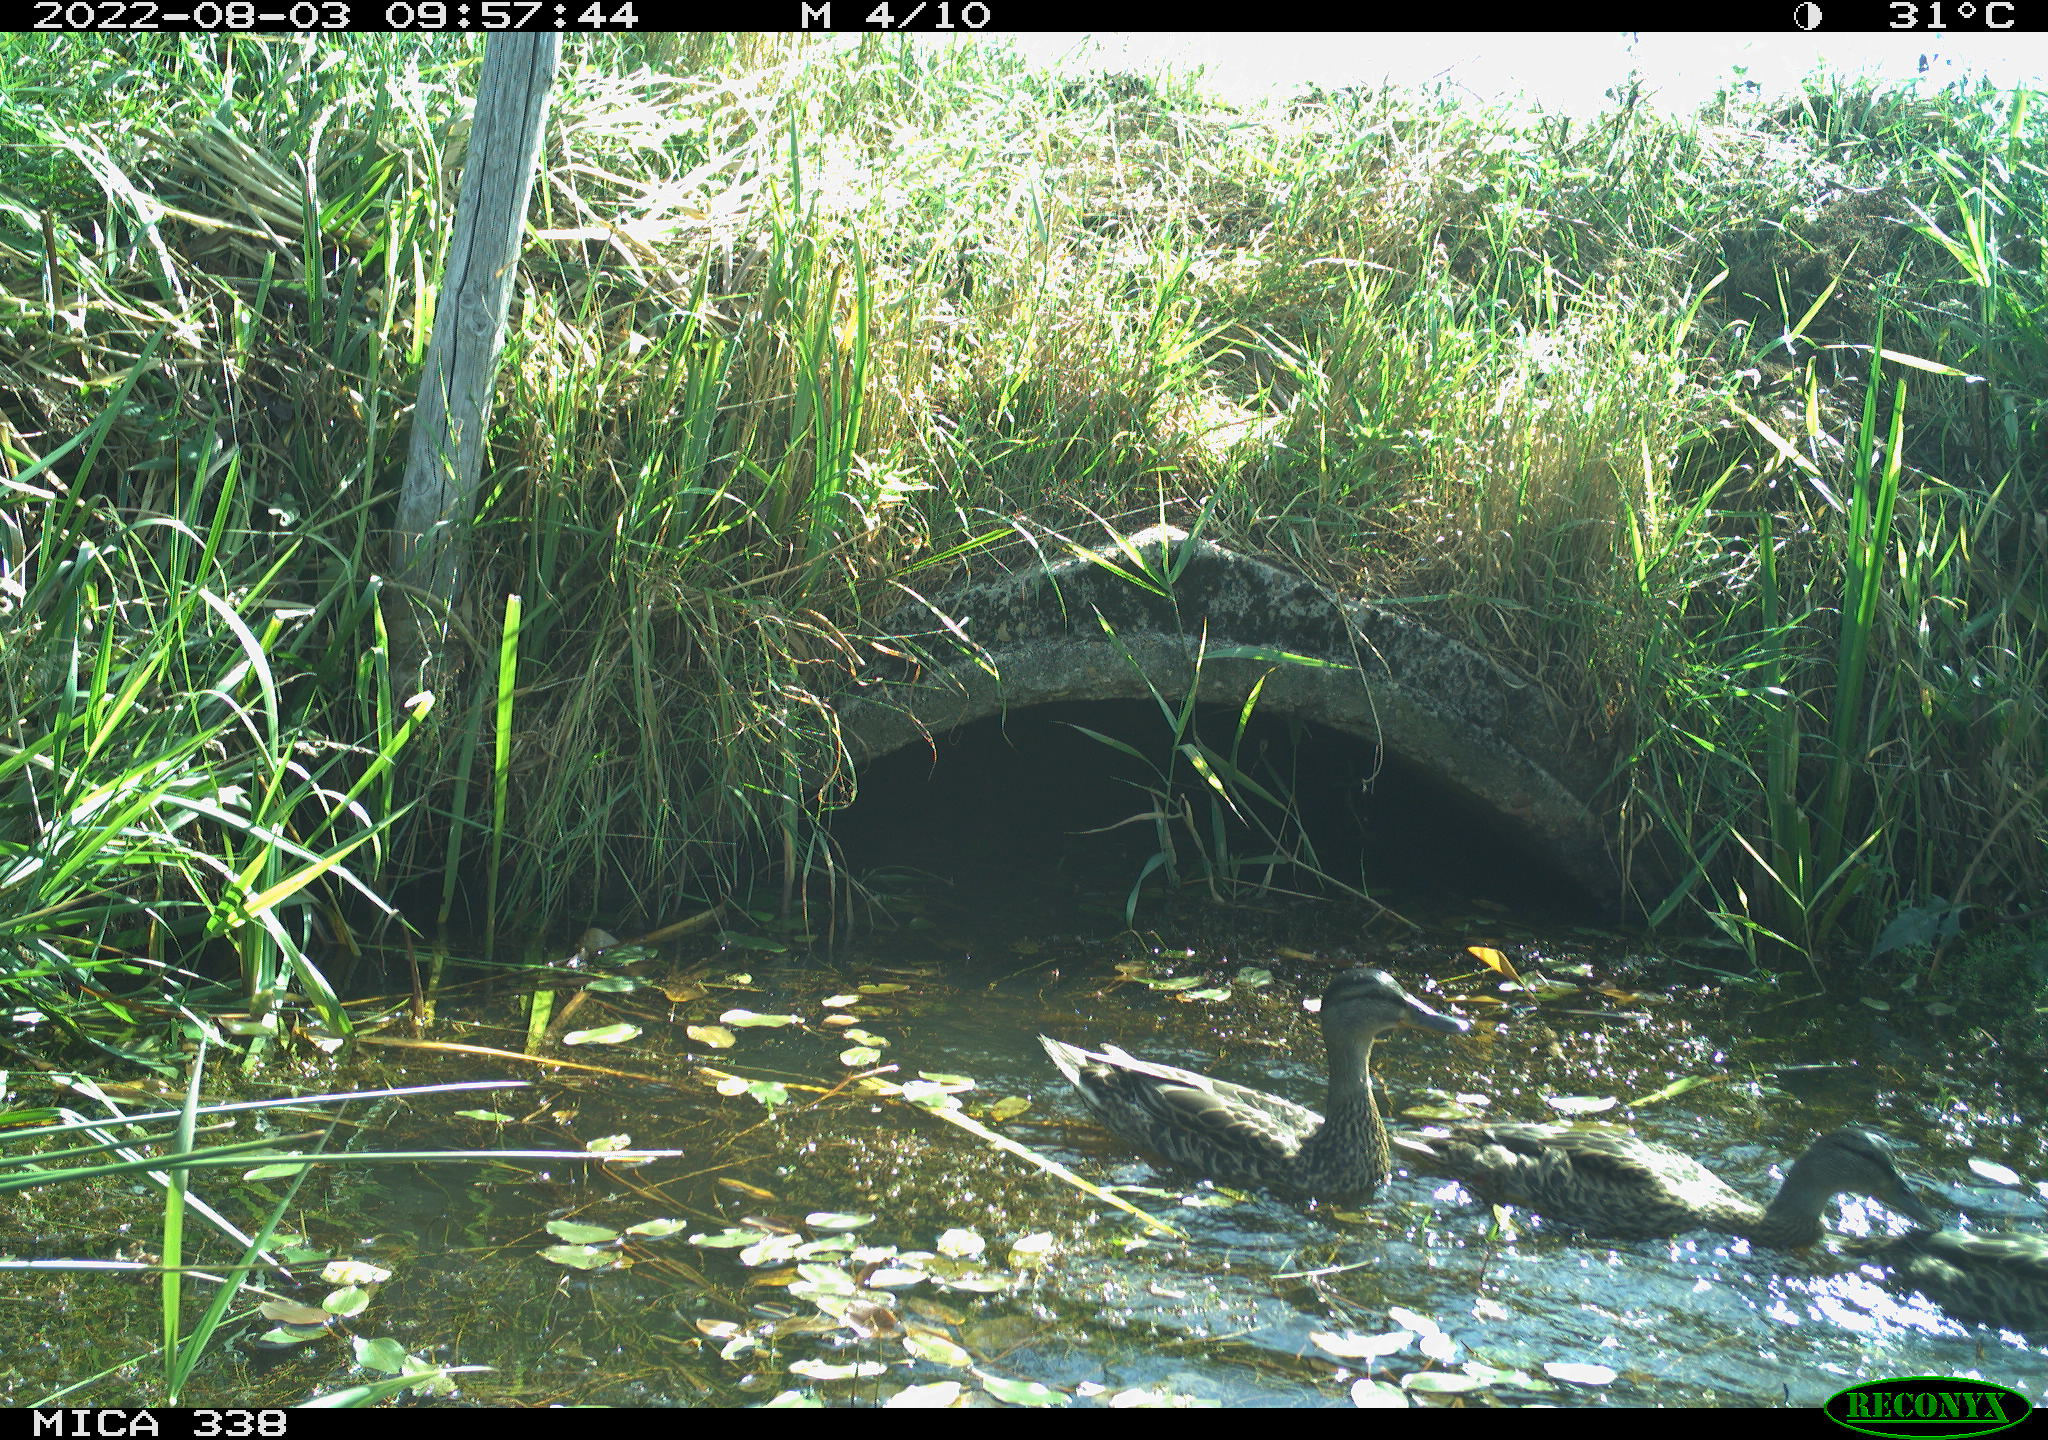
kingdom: Animalia
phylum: Chordata
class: Aves
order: Anseriformes
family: Anatidae
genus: Anas
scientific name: Anas platyrhynchos
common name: Mallard
